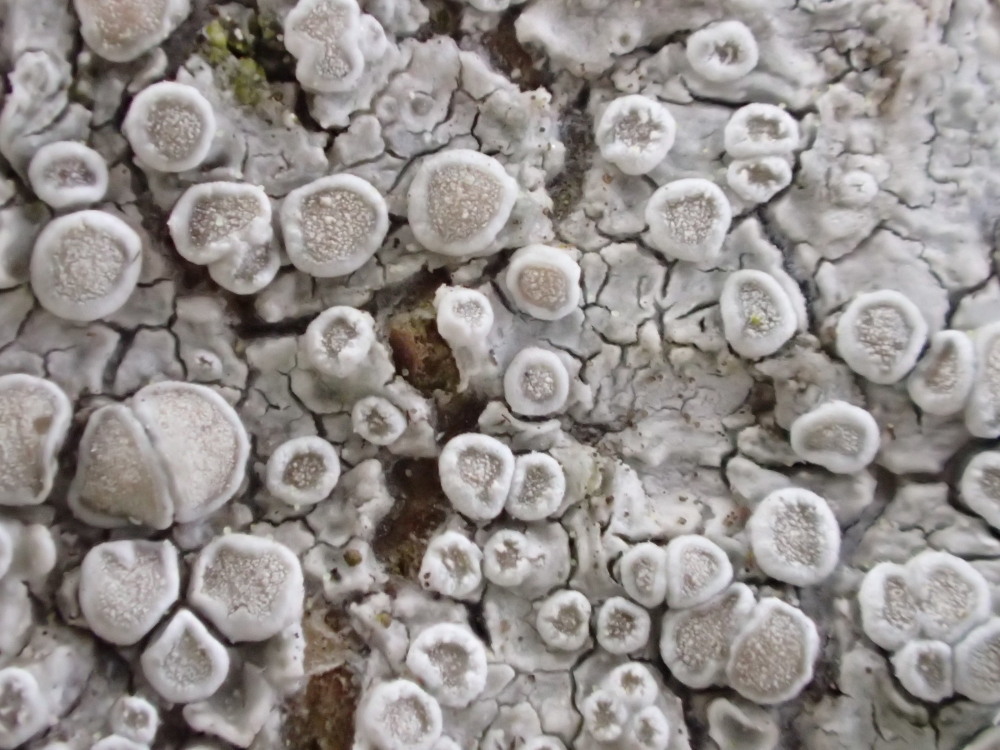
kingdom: Fungi
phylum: Ascomycota
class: Lecanoromycetes
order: Lecanorales
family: Lecanoraceae
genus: Glaucomaria
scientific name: Glaucomaria carpinea
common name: hviddugget kantskivelav
